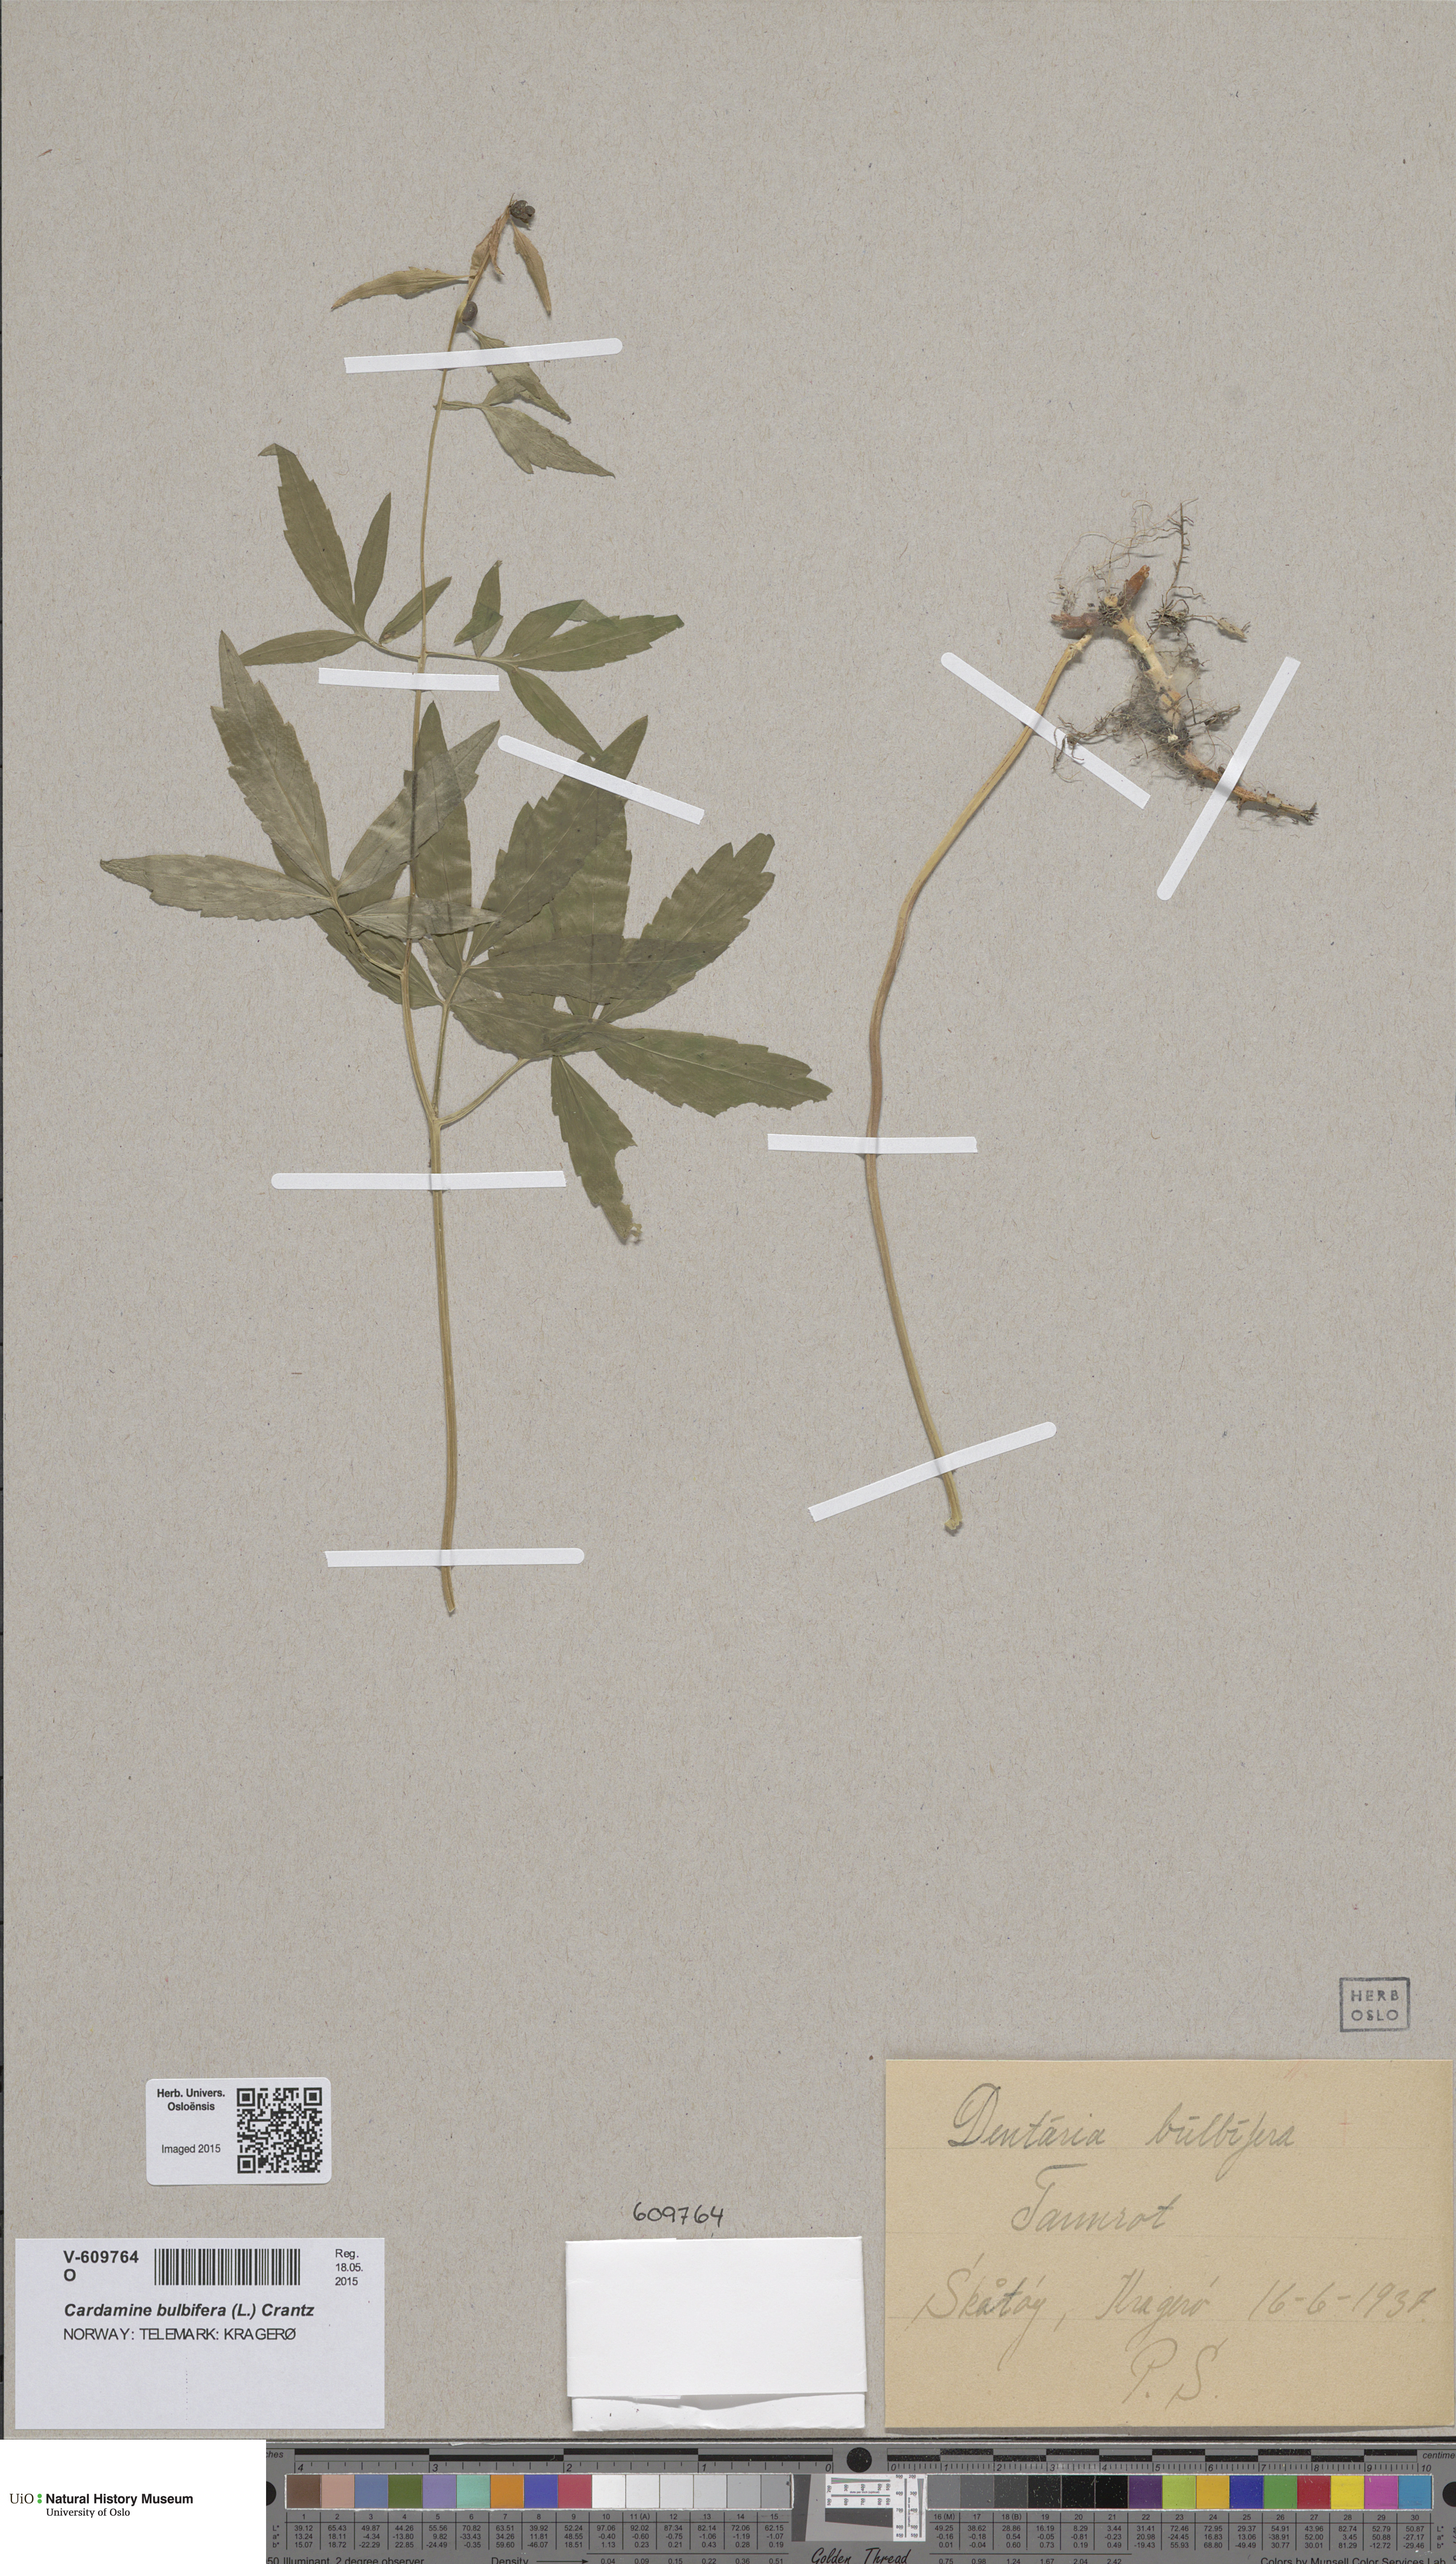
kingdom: Plantae
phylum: Tracheophyta
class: Magnoliopsida
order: Brassicales
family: Brassicaceae
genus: Cardamine
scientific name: Cardamine bulbifera
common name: Coralroot bittercress
